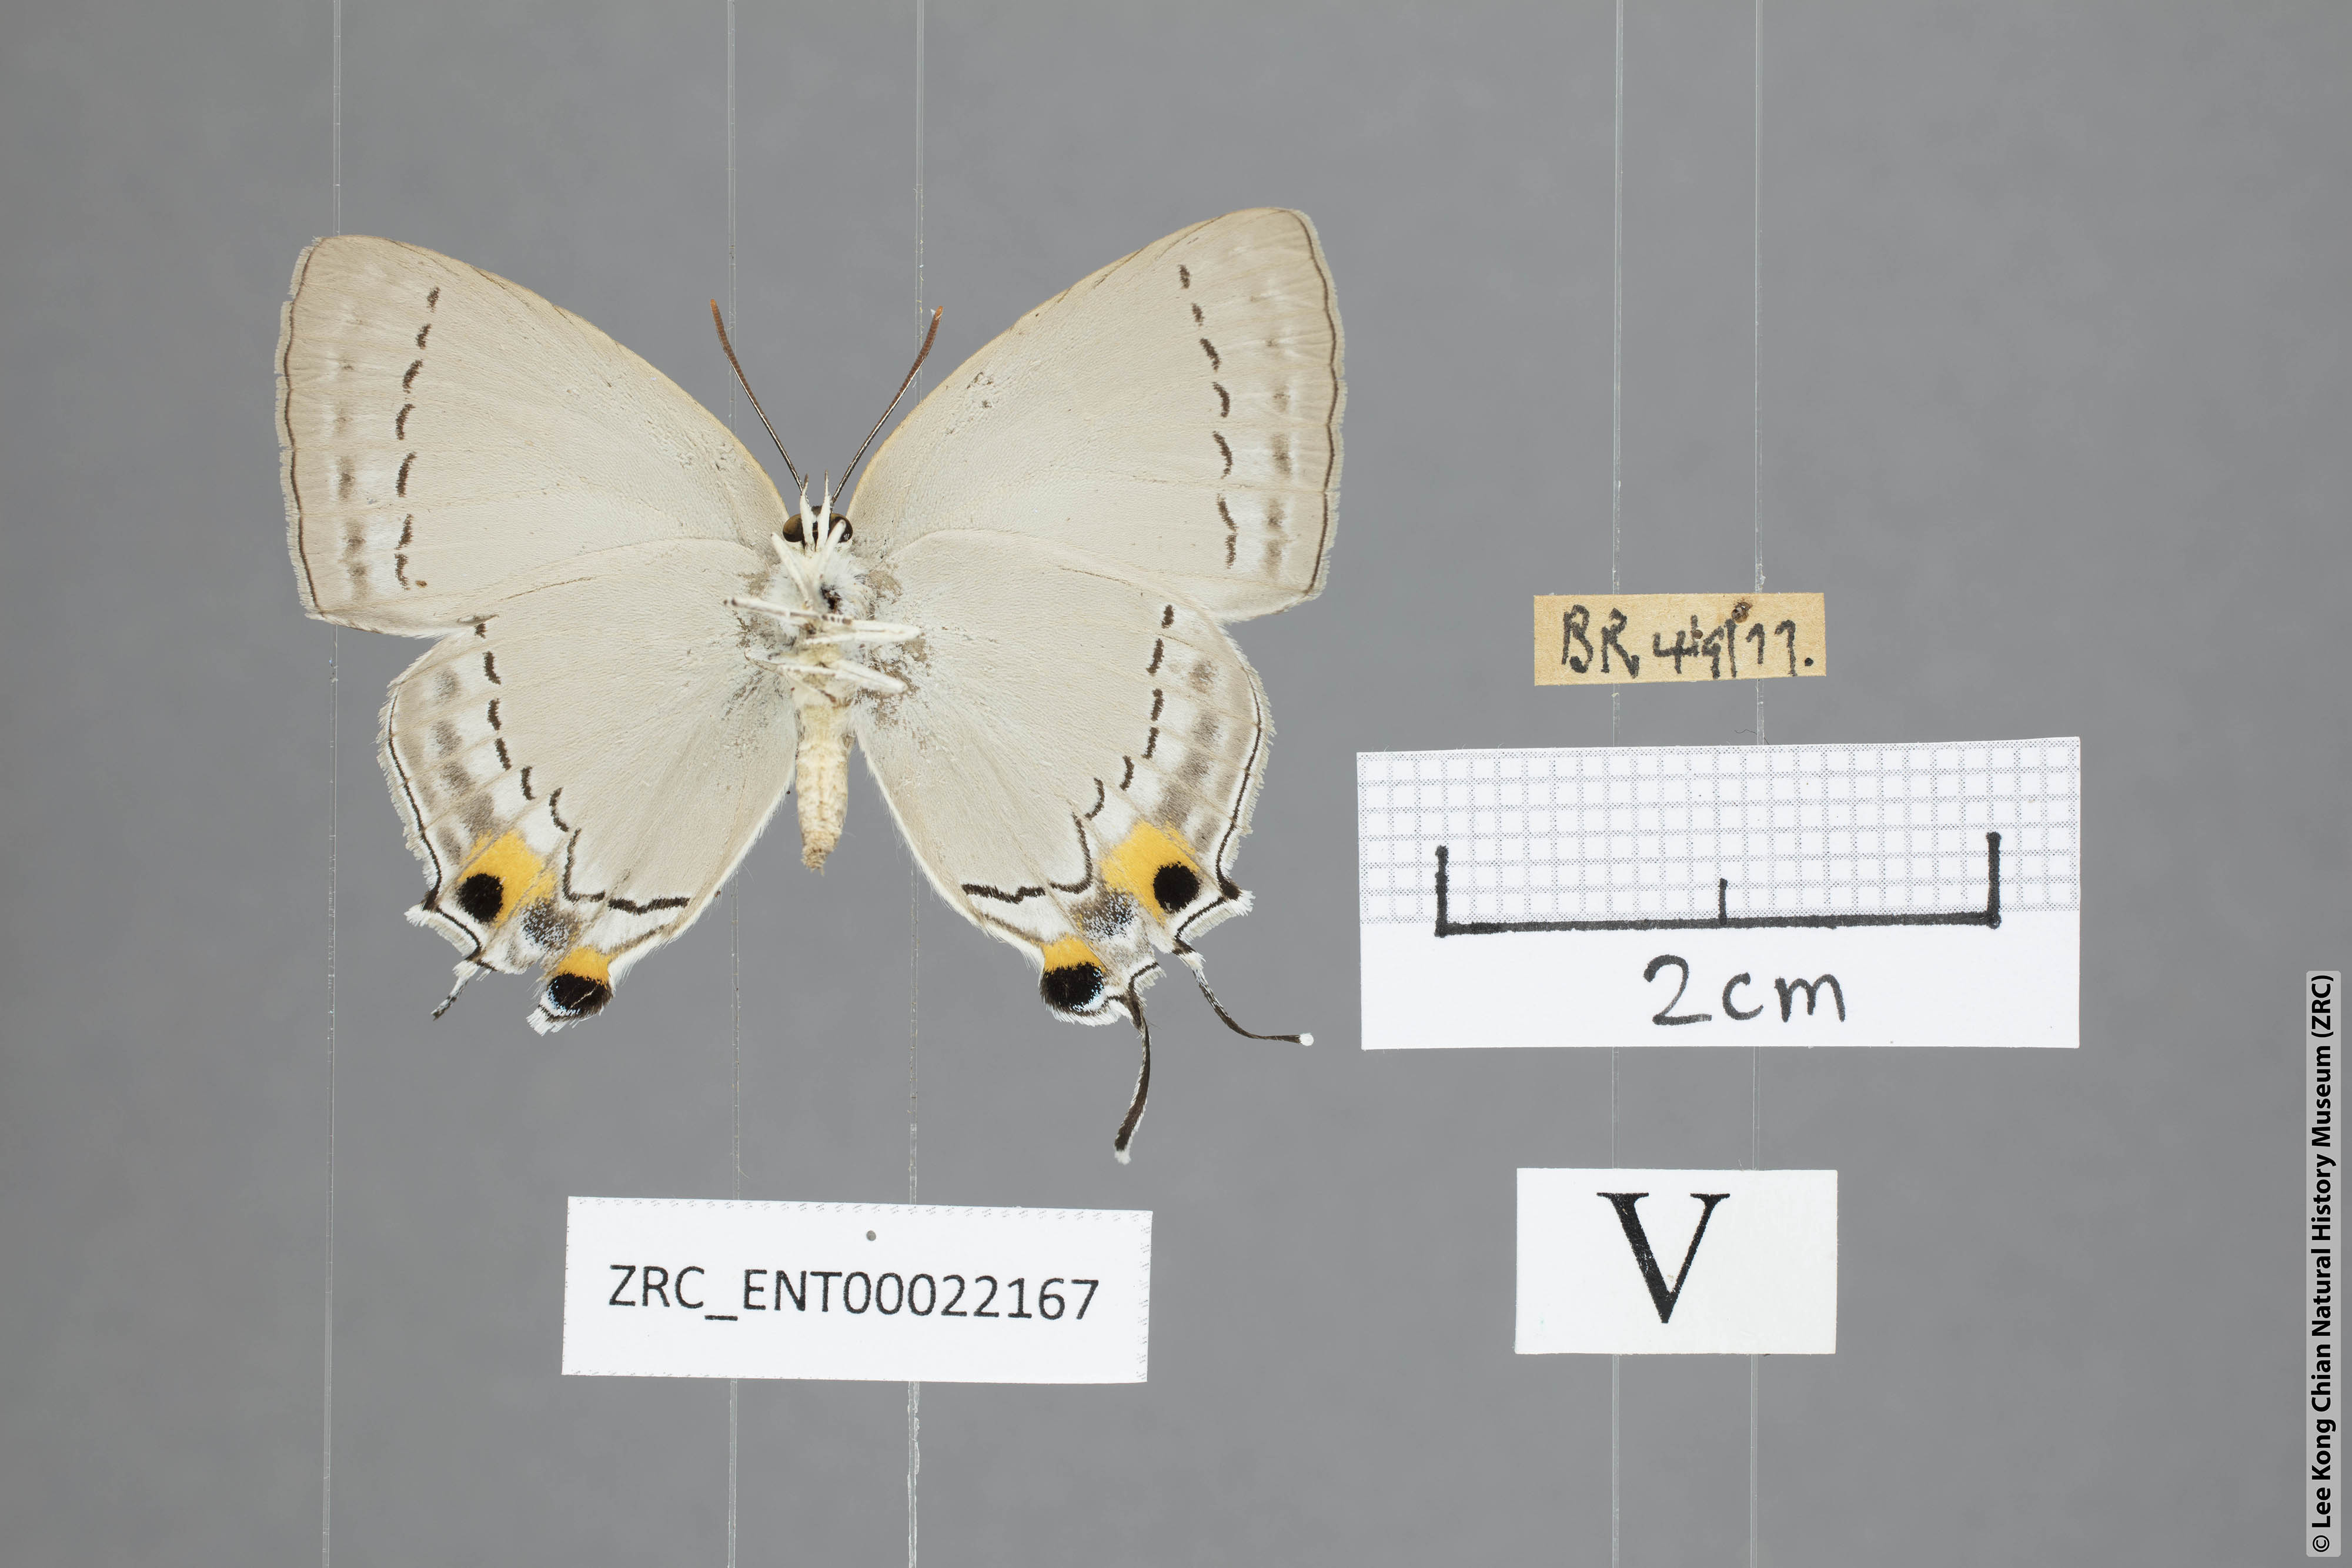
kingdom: Animalia
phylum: Arthropoda
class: Insecta
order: Lepidoptera
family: Lycaenidae
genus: Tajuria
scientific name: Tajuria cippus
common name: Peacock royal
